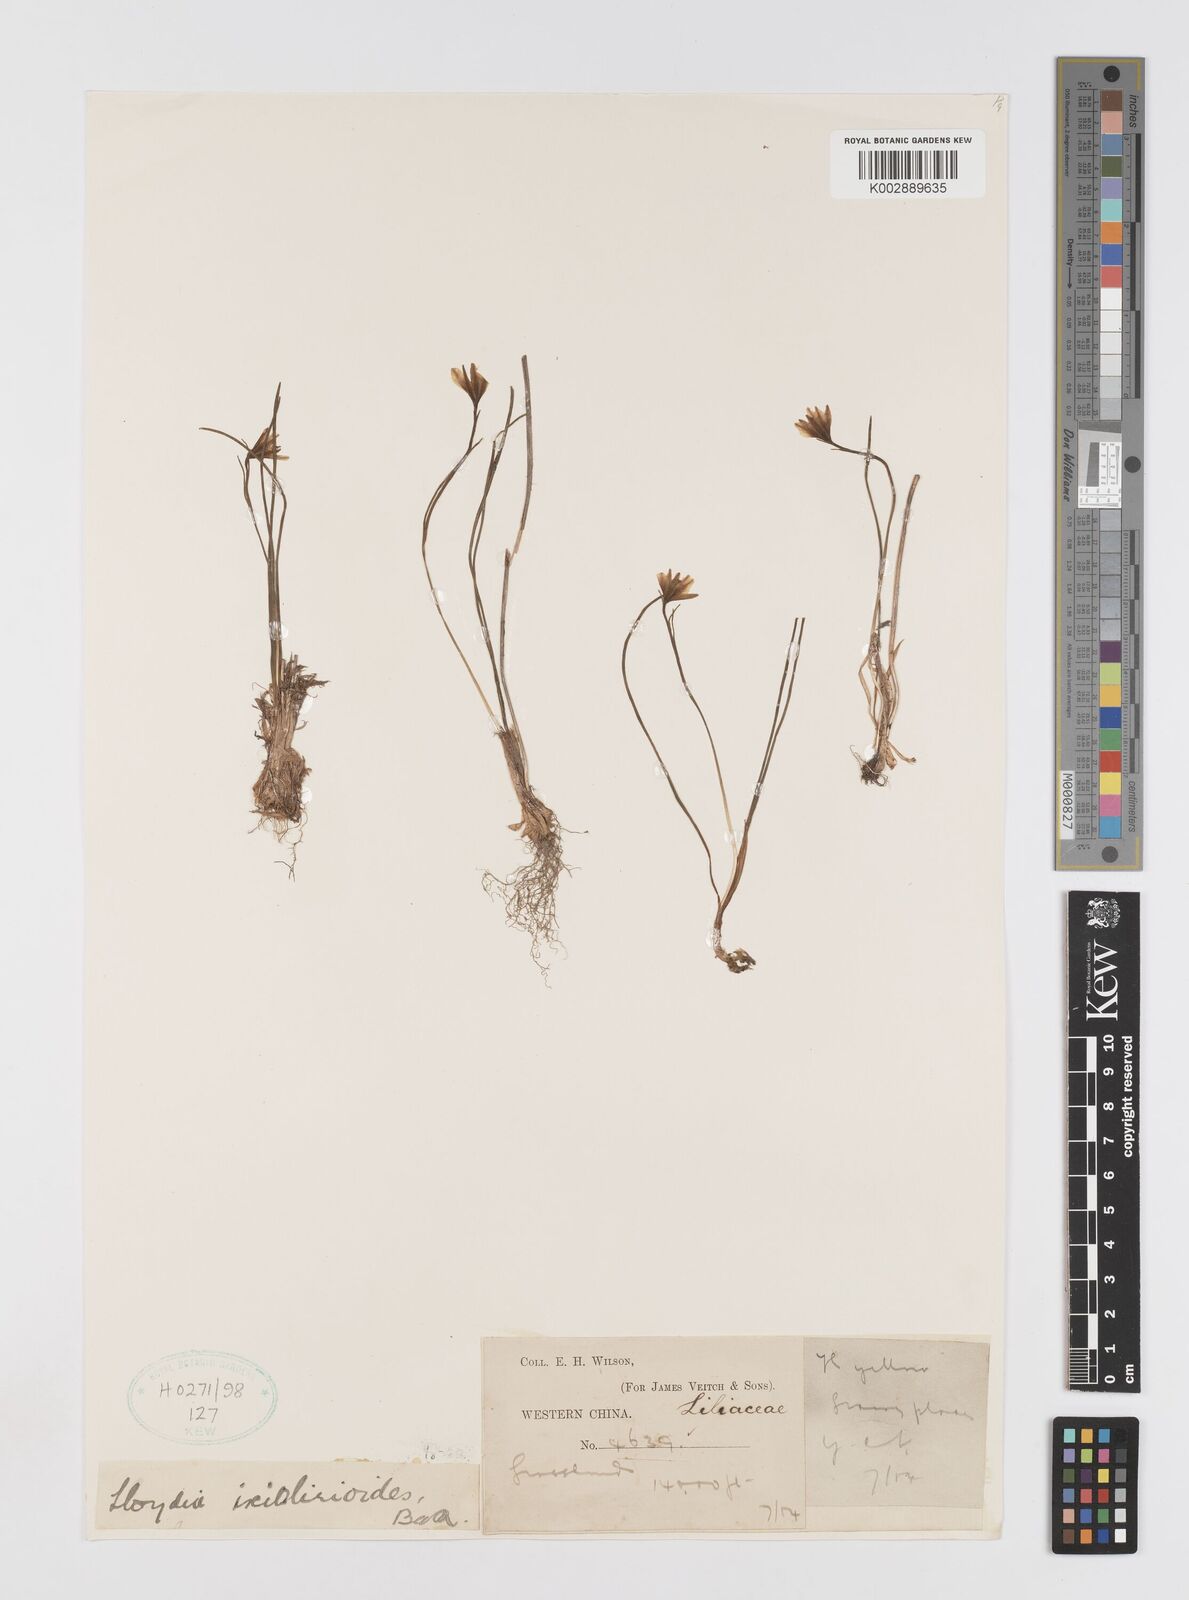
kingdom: Plantae
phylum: Tracheophyta
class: Liliopsida
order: Liliales
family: Liliaceae
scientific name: Liliaceae
